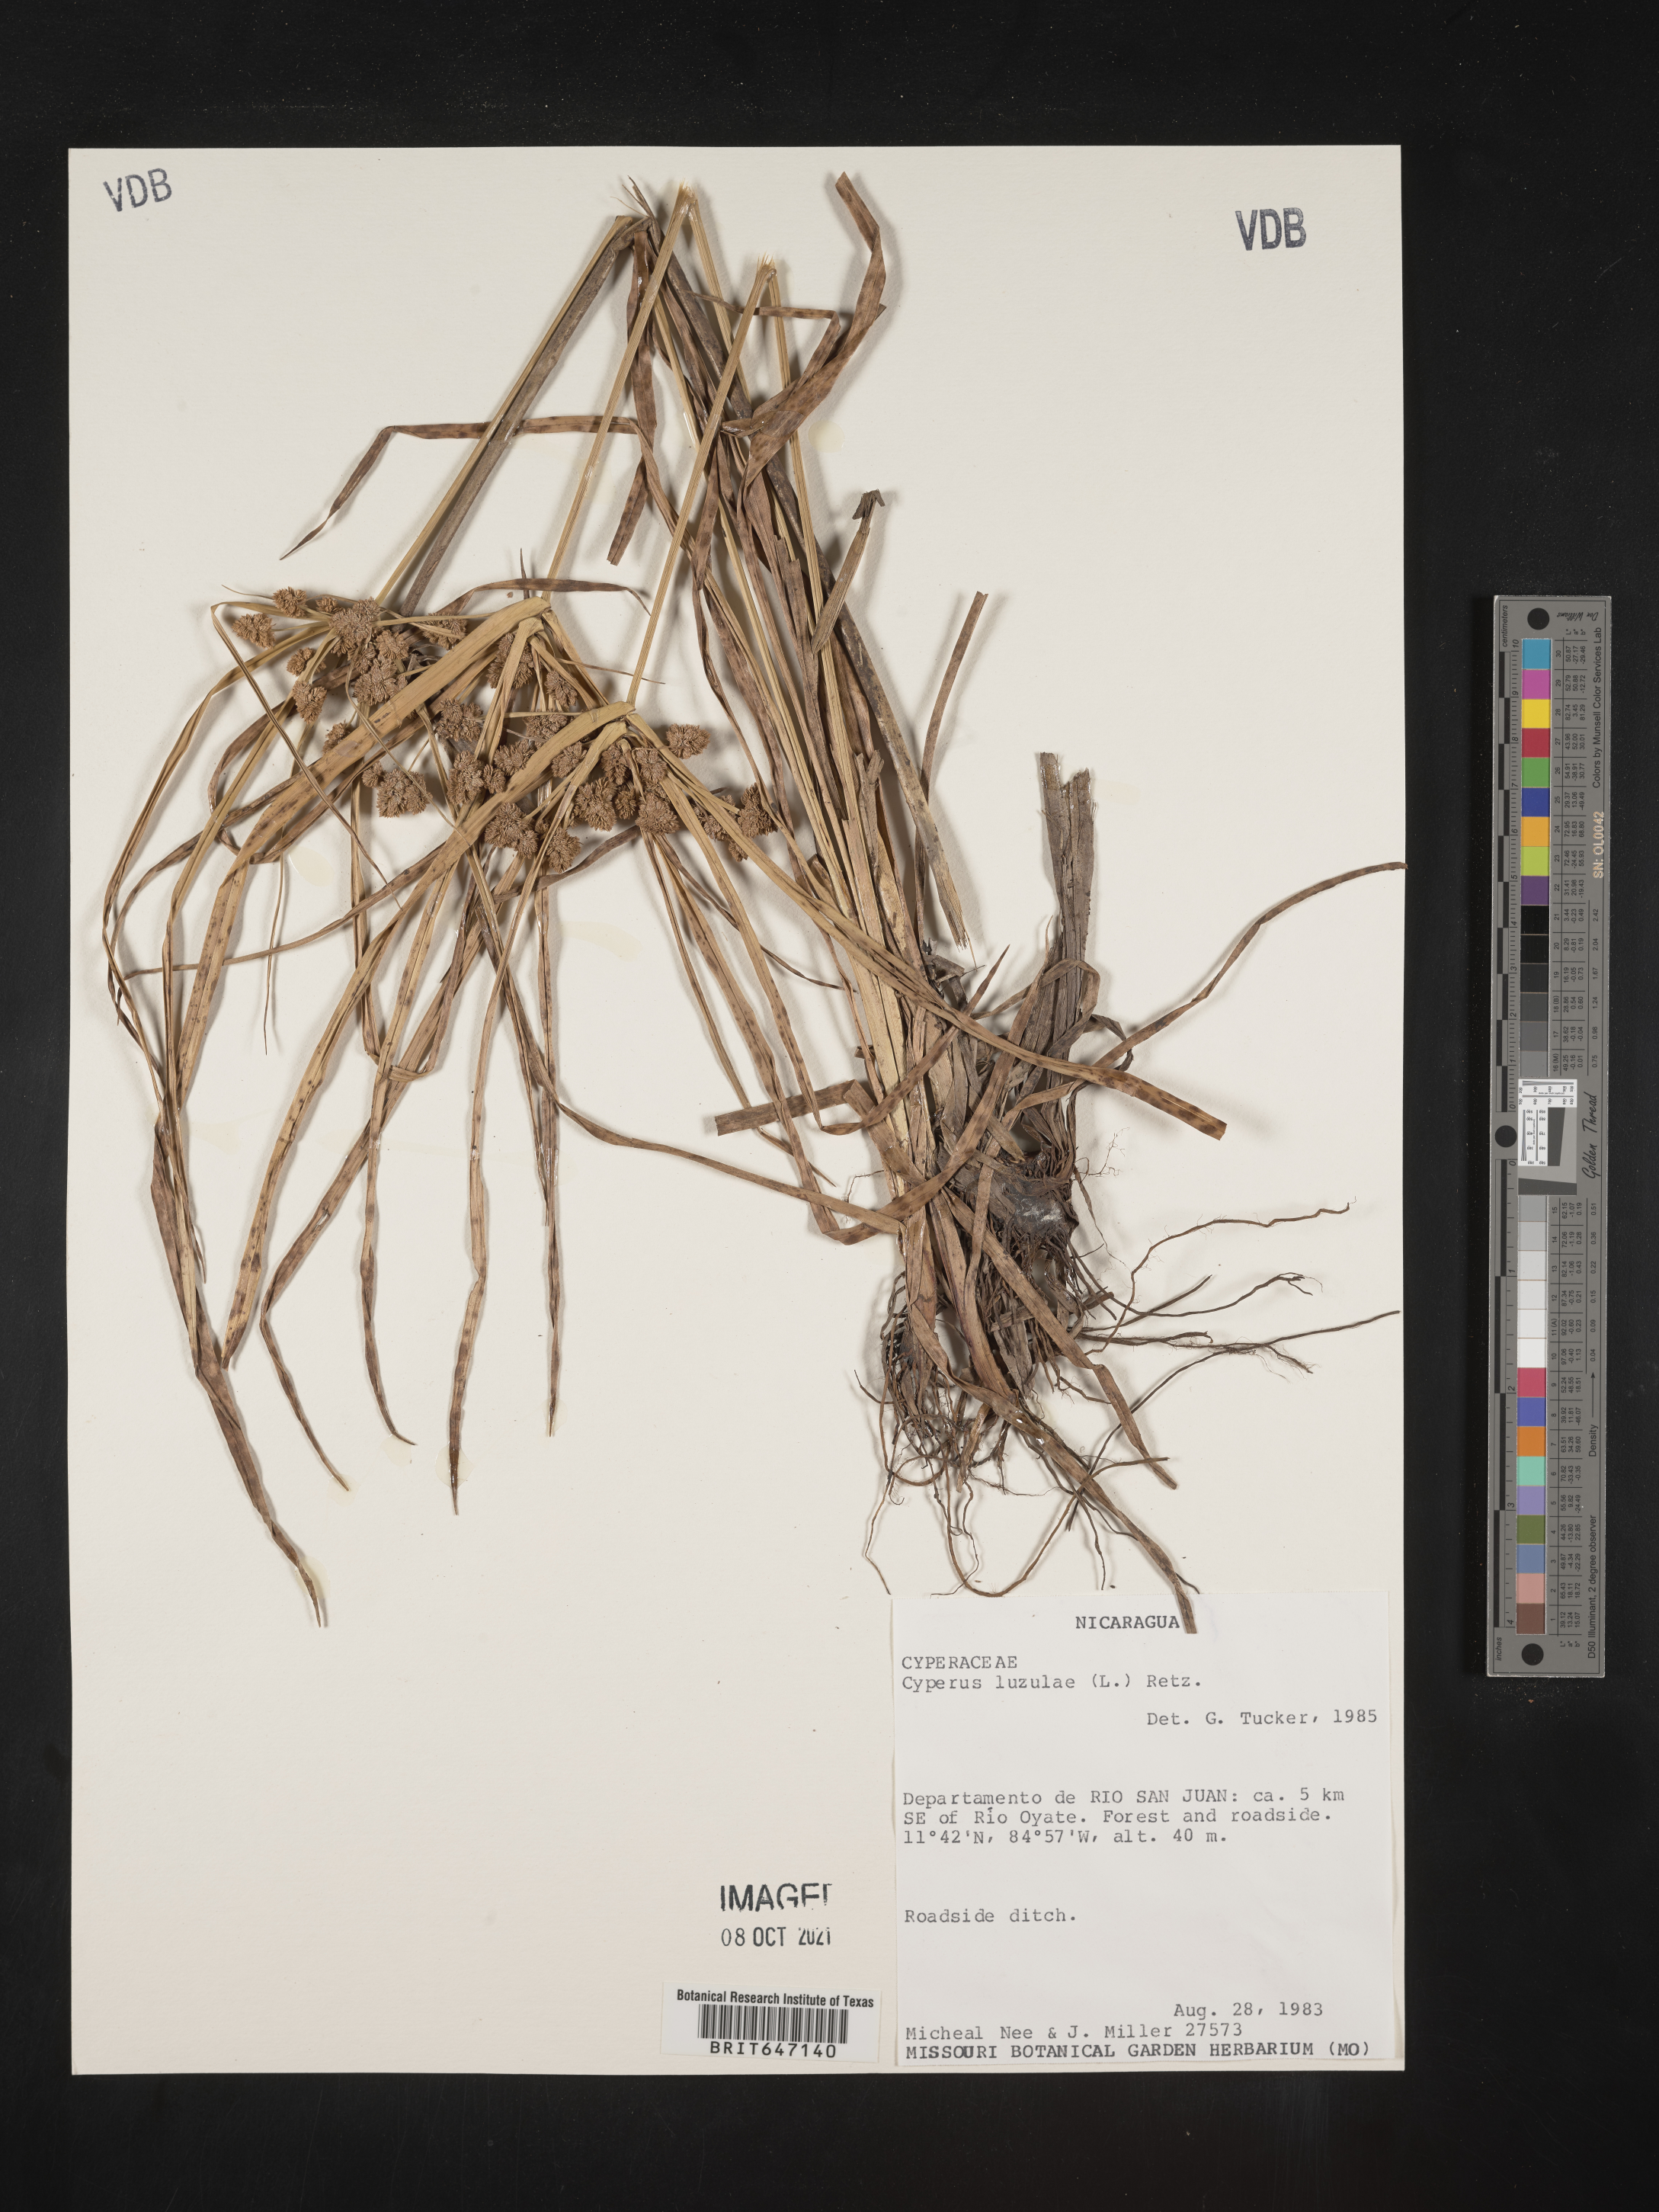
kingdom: Plantae
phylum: Tracheophyta
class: Liliopsida
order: Poales
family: Cyperaceae
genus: Cyperus
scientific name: Cyperus luzulae
